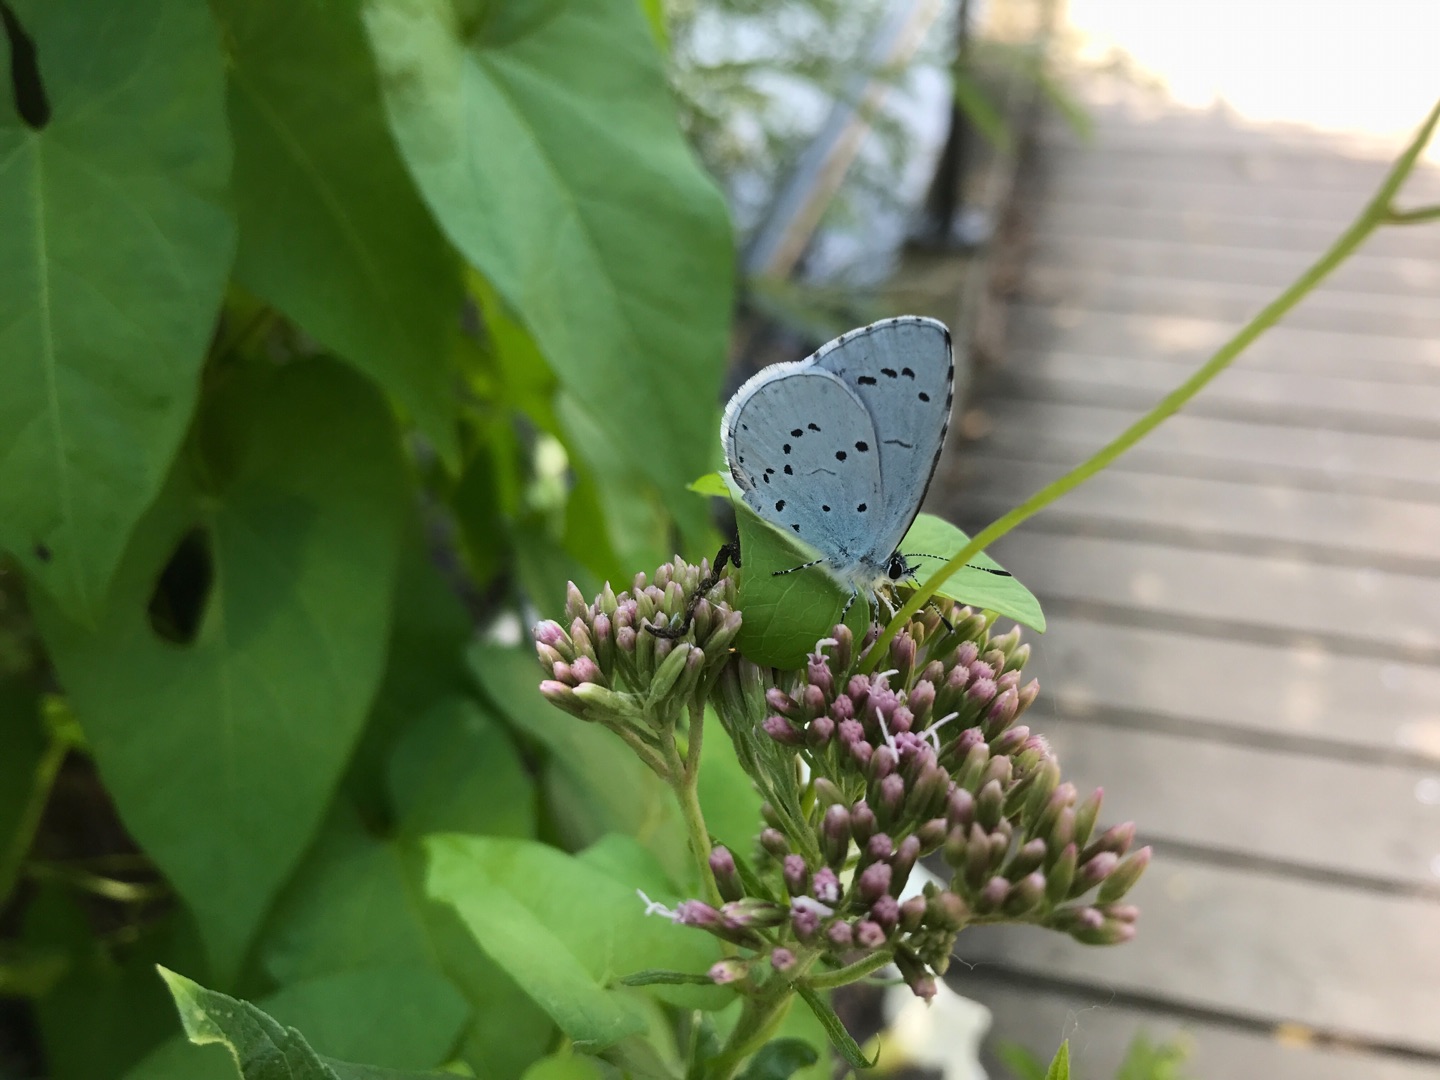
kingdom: Animalia
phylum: Arthropoda
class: Insecta
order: Lepidoptera
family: Lycaenidae
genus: Celastrina
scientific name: Celastrina argiolus
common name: Skovblåfugl
